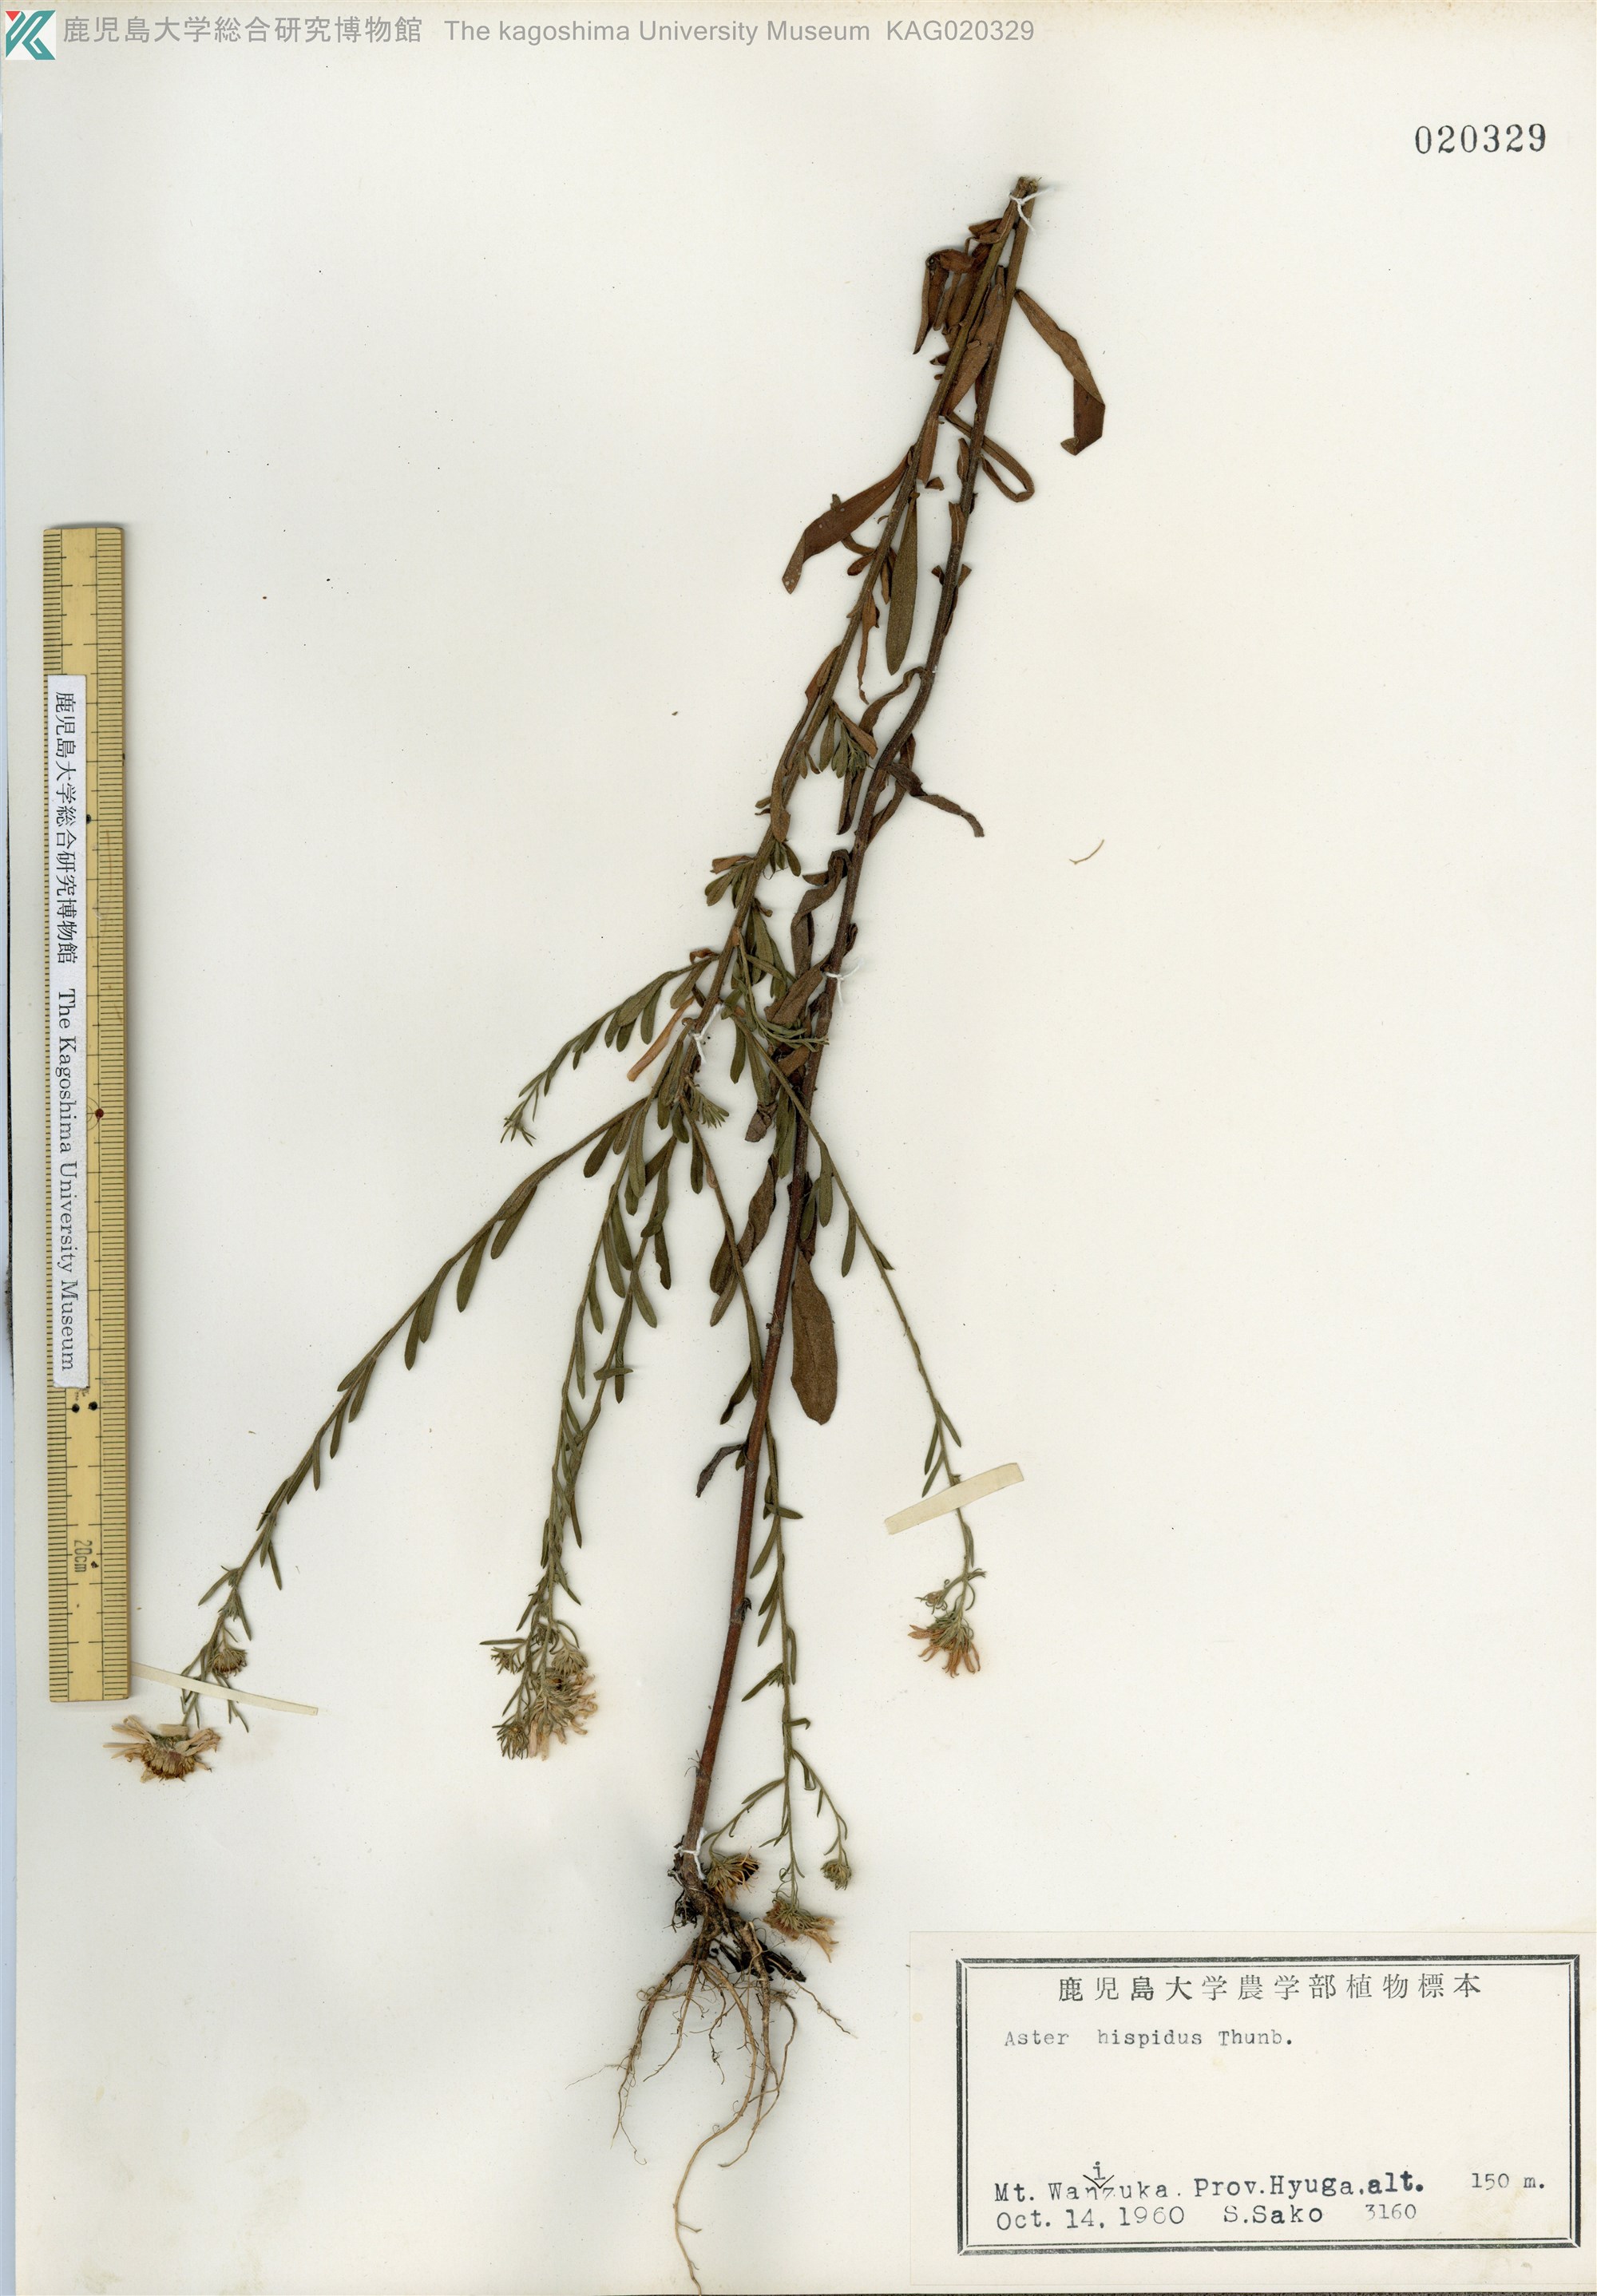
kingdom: Plantae
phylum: Tracheophyta
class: Magnoliopsida
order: Asterales
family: Asteraceae
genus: Heteropappus
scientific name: Heteropappus hispidus
